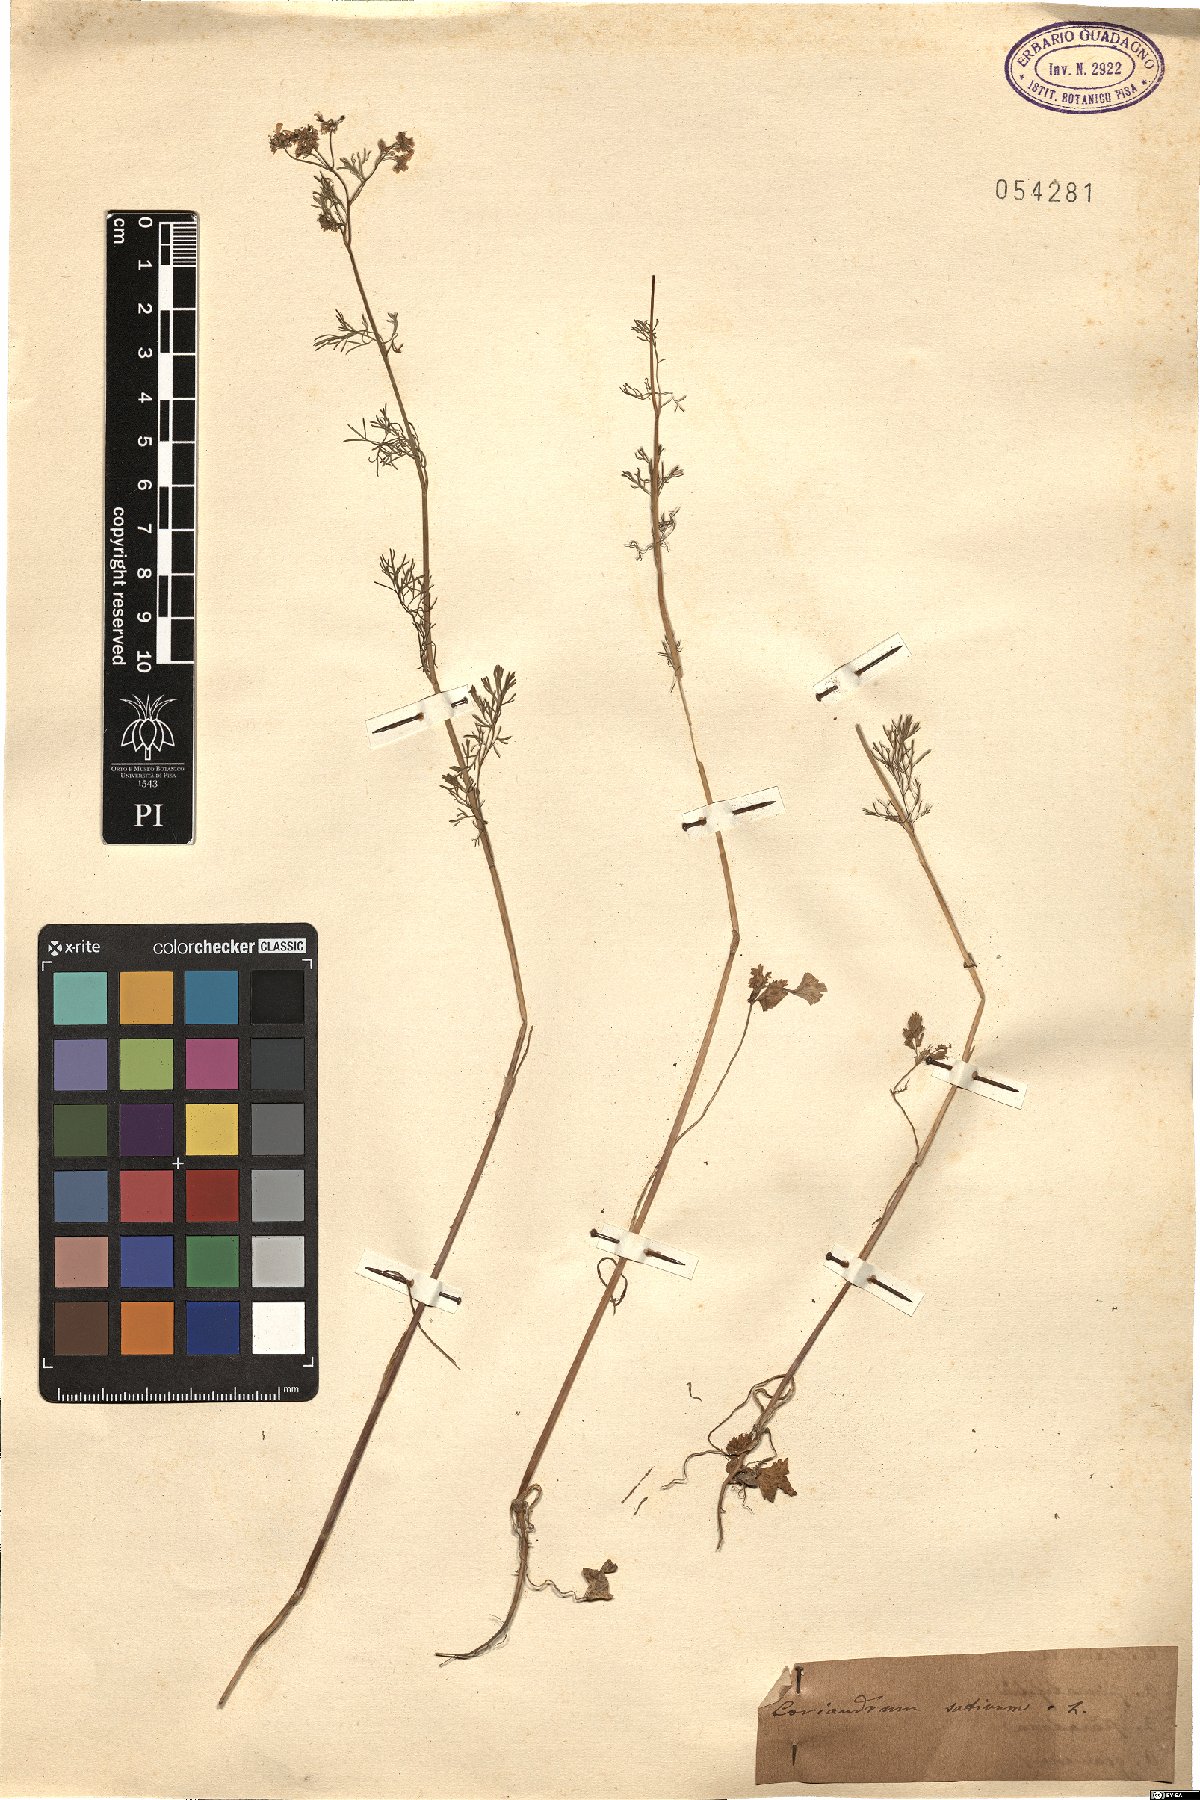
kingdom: Plantae
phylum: Tracheophyta
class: Magnoliopsida
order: Apiales
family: Apiaceae
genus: Coriandrum
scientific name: Coriandrum sativum
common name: Coriander
